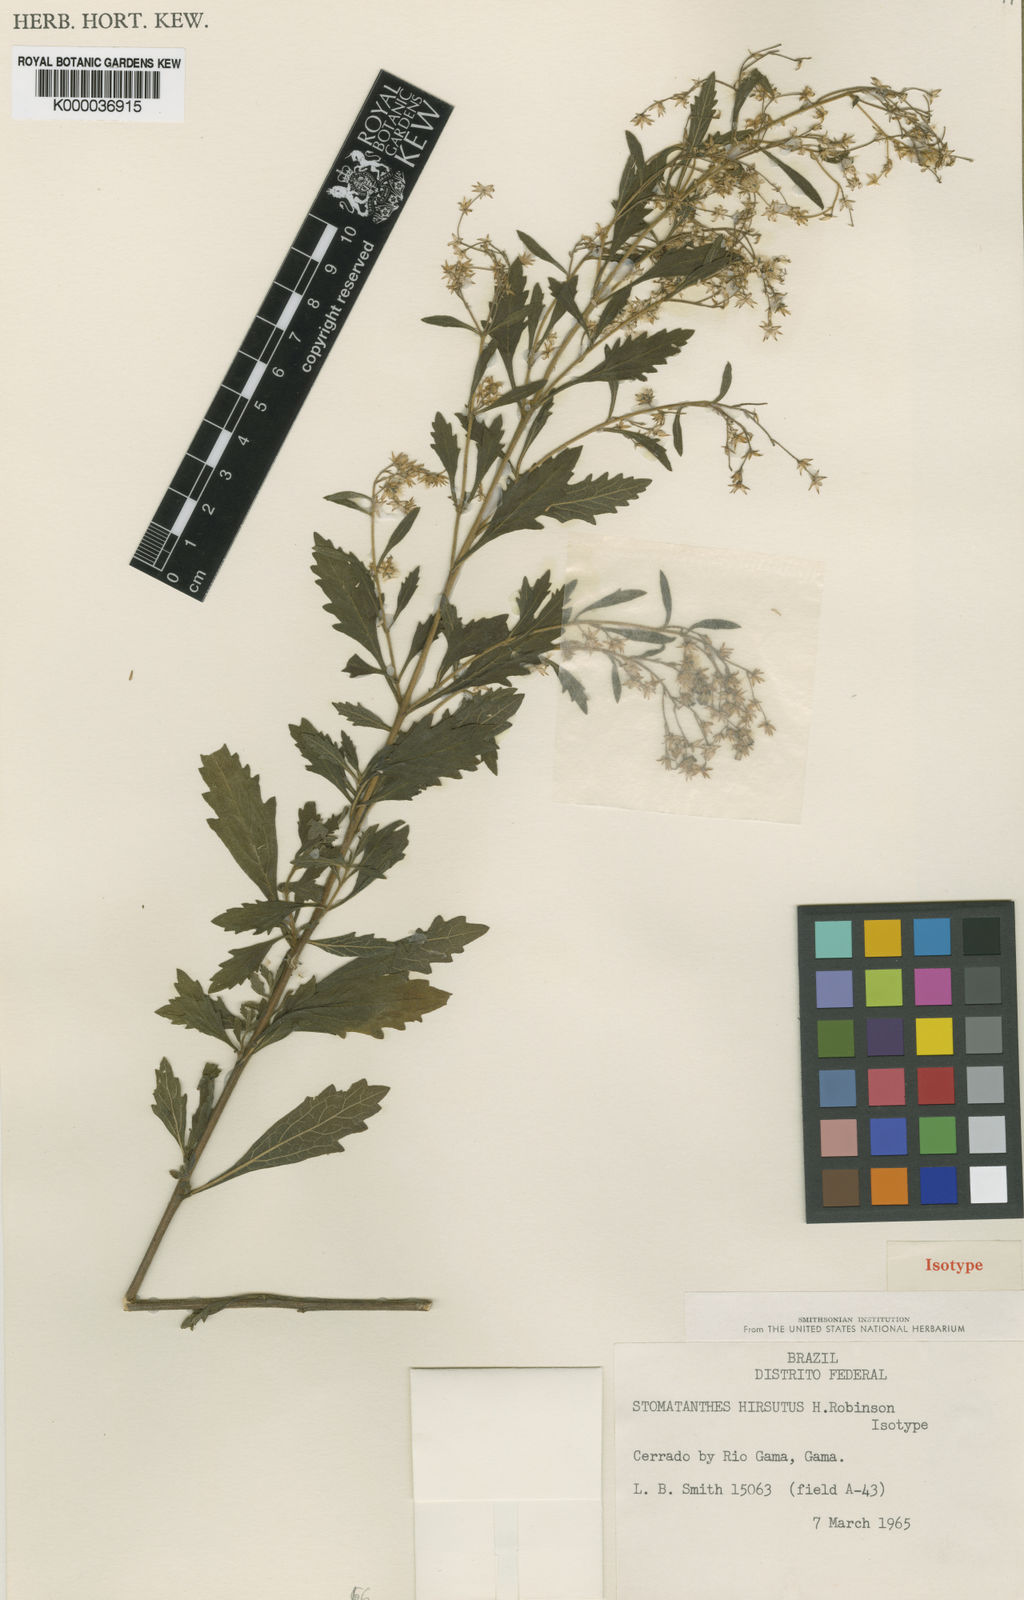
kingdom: Plantae
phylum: Tracheophyta
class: Magnoliopsida
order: Asterales
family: Asteraceae
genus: Stomatanthes
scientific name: Stomatanthes hirsutus
